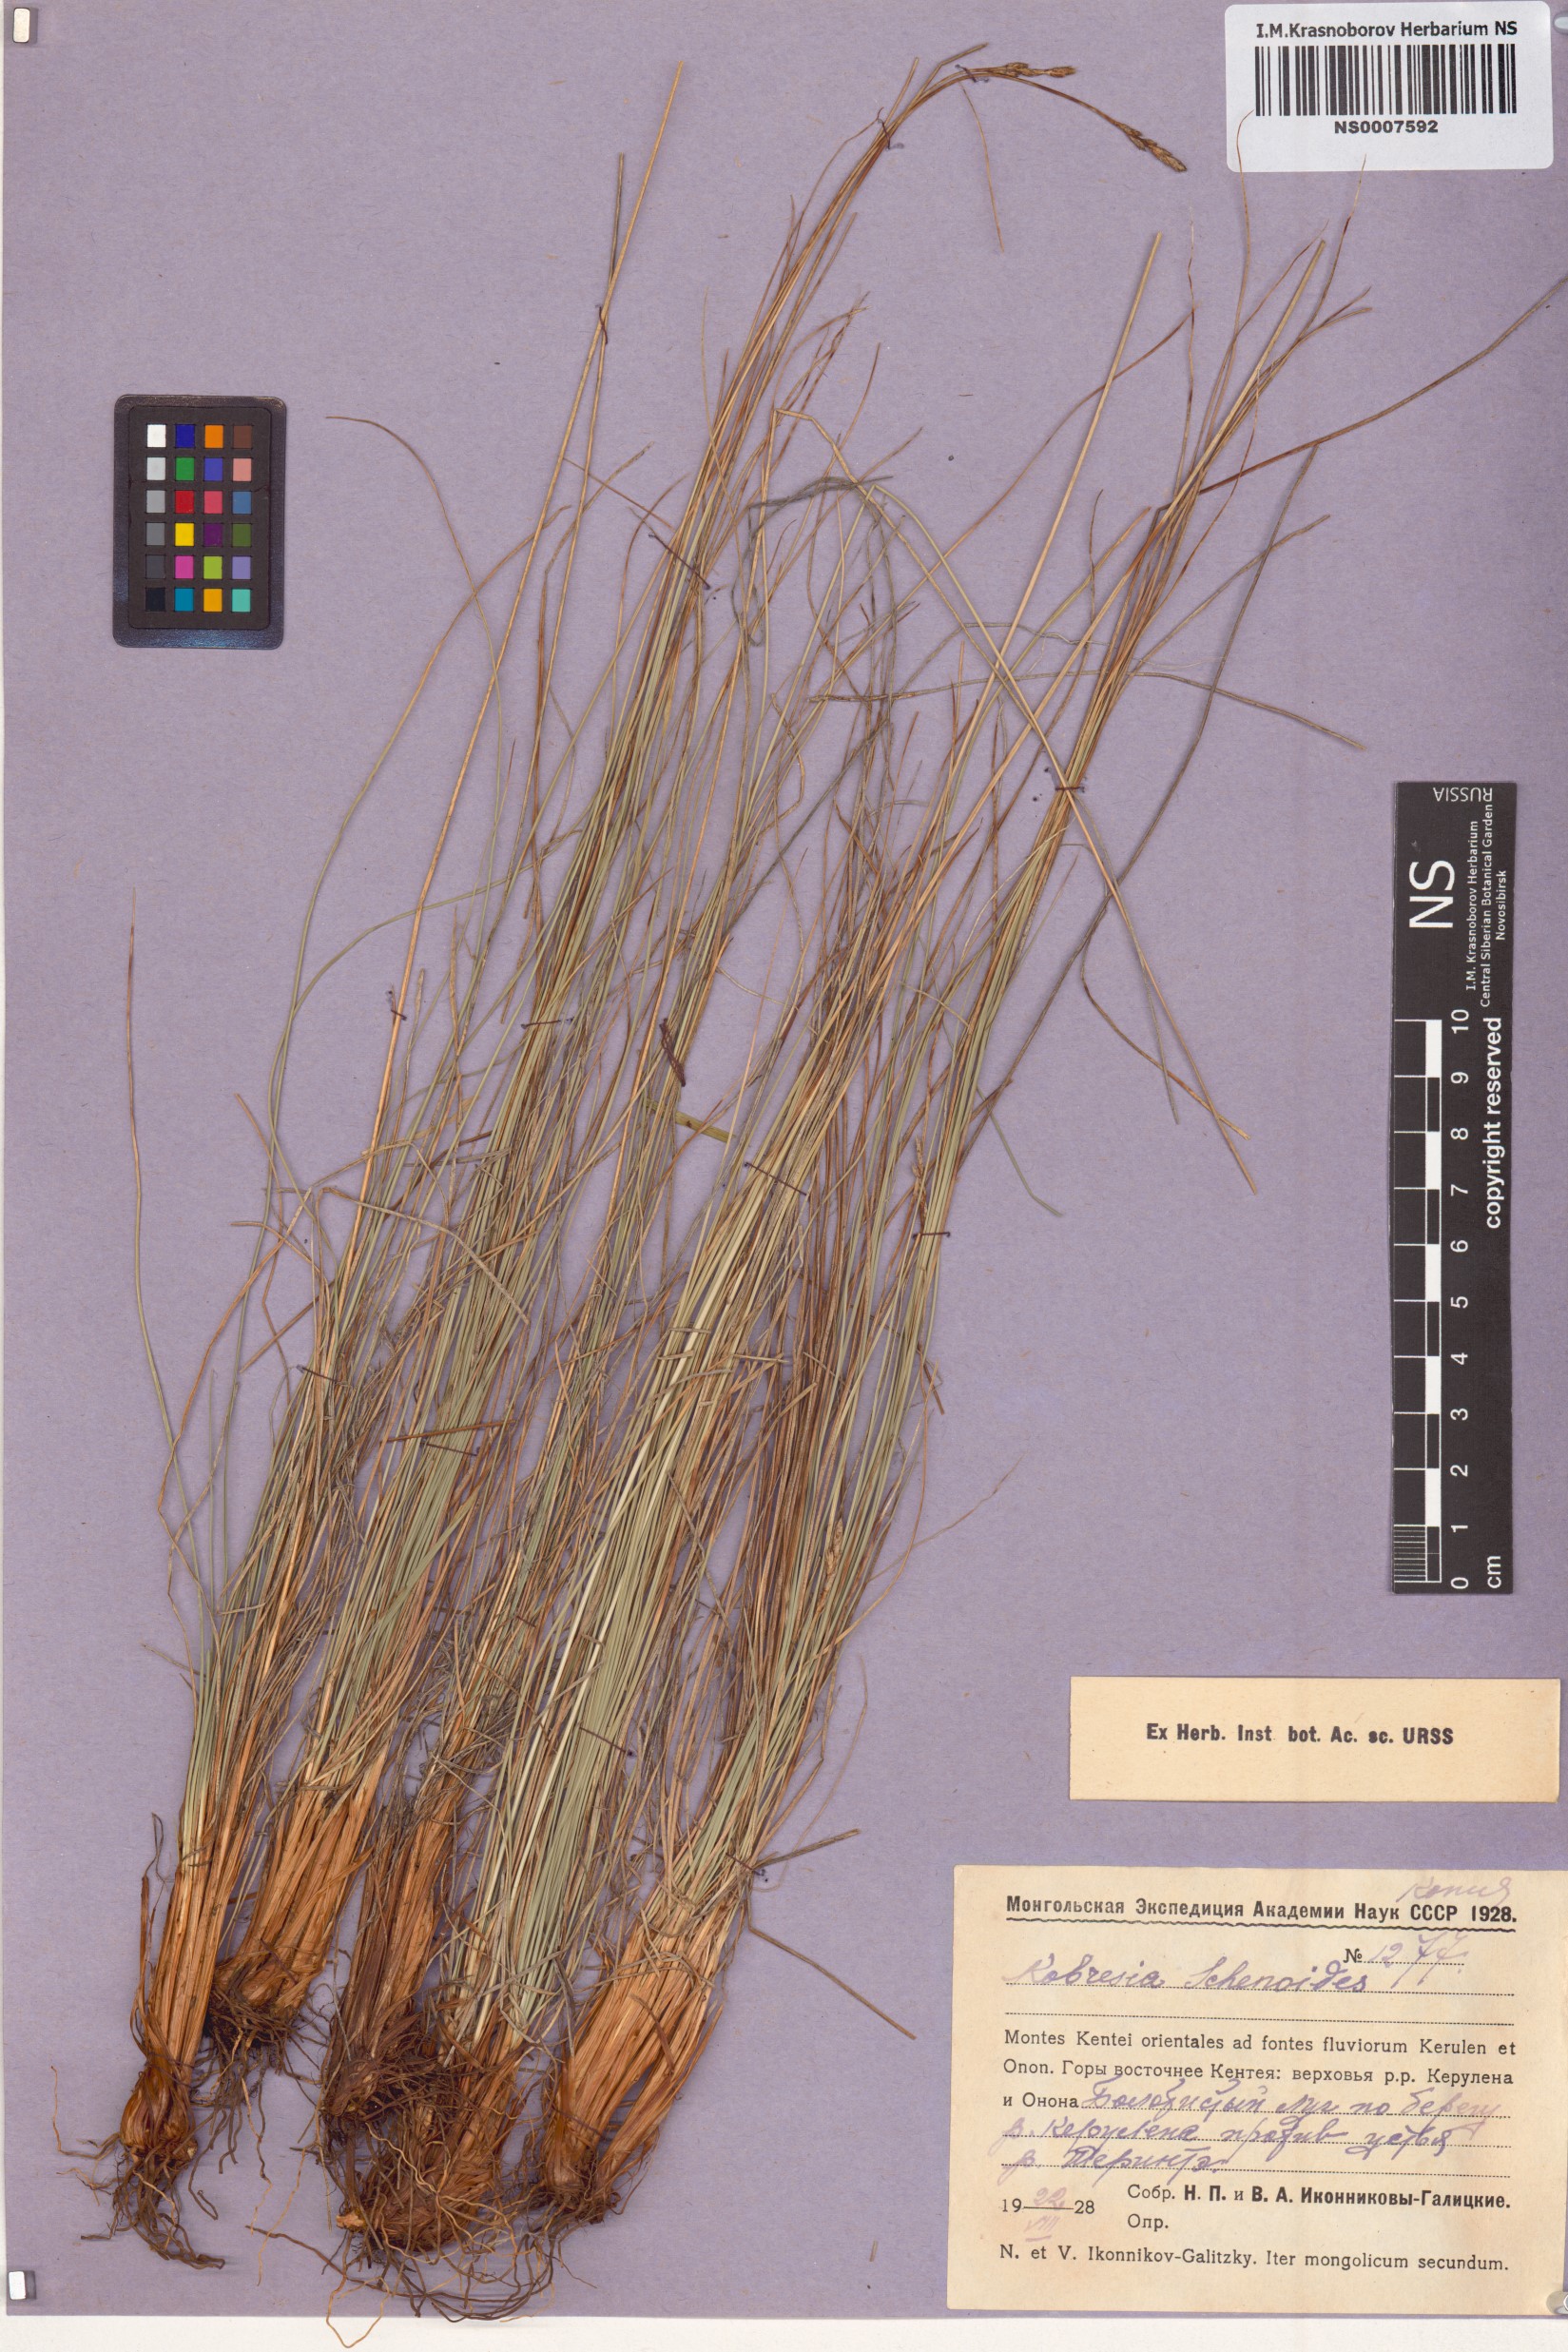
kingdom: Plantae
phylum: Tracheophyta
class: Liliopsida
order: Poales
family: Cyperaceae
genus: Carex
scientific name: Carex deasyi
